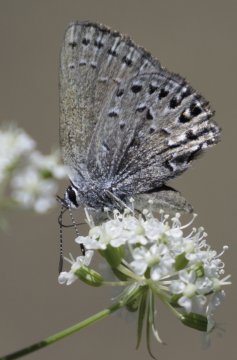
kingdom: Animalia
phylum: Arthropoda
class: Insecta
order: Lepidoptera
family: Lycaenidae
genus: Satyrium
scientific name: Satyrium behrii
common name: Behr's Hairstreak
